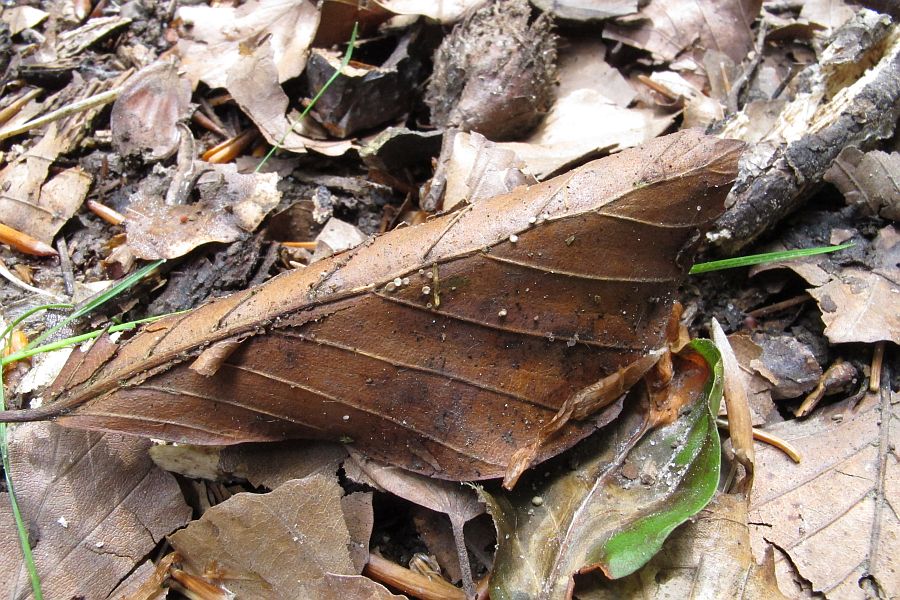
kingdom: Fungi
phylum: Ascomycota
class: Leotiomycetes
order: Helotiales
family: Lachnaceae
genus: Brunnipila
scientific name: Brunnipila fuscescens
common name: bøge-frynseskive
